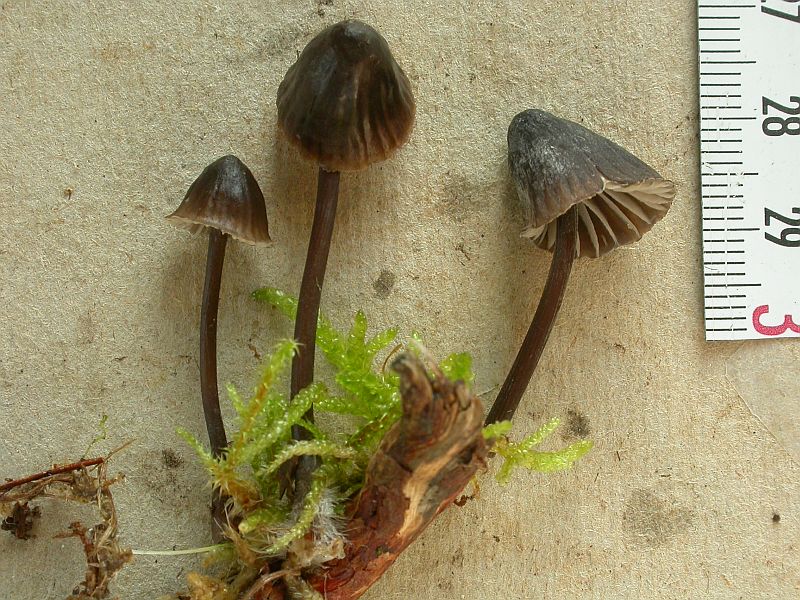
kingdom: Fungi
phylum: Basidiomycota
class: Agaricomycetes
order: Agaricales
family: Mycenaceae
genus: Mycena
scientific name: Mycena galopus
